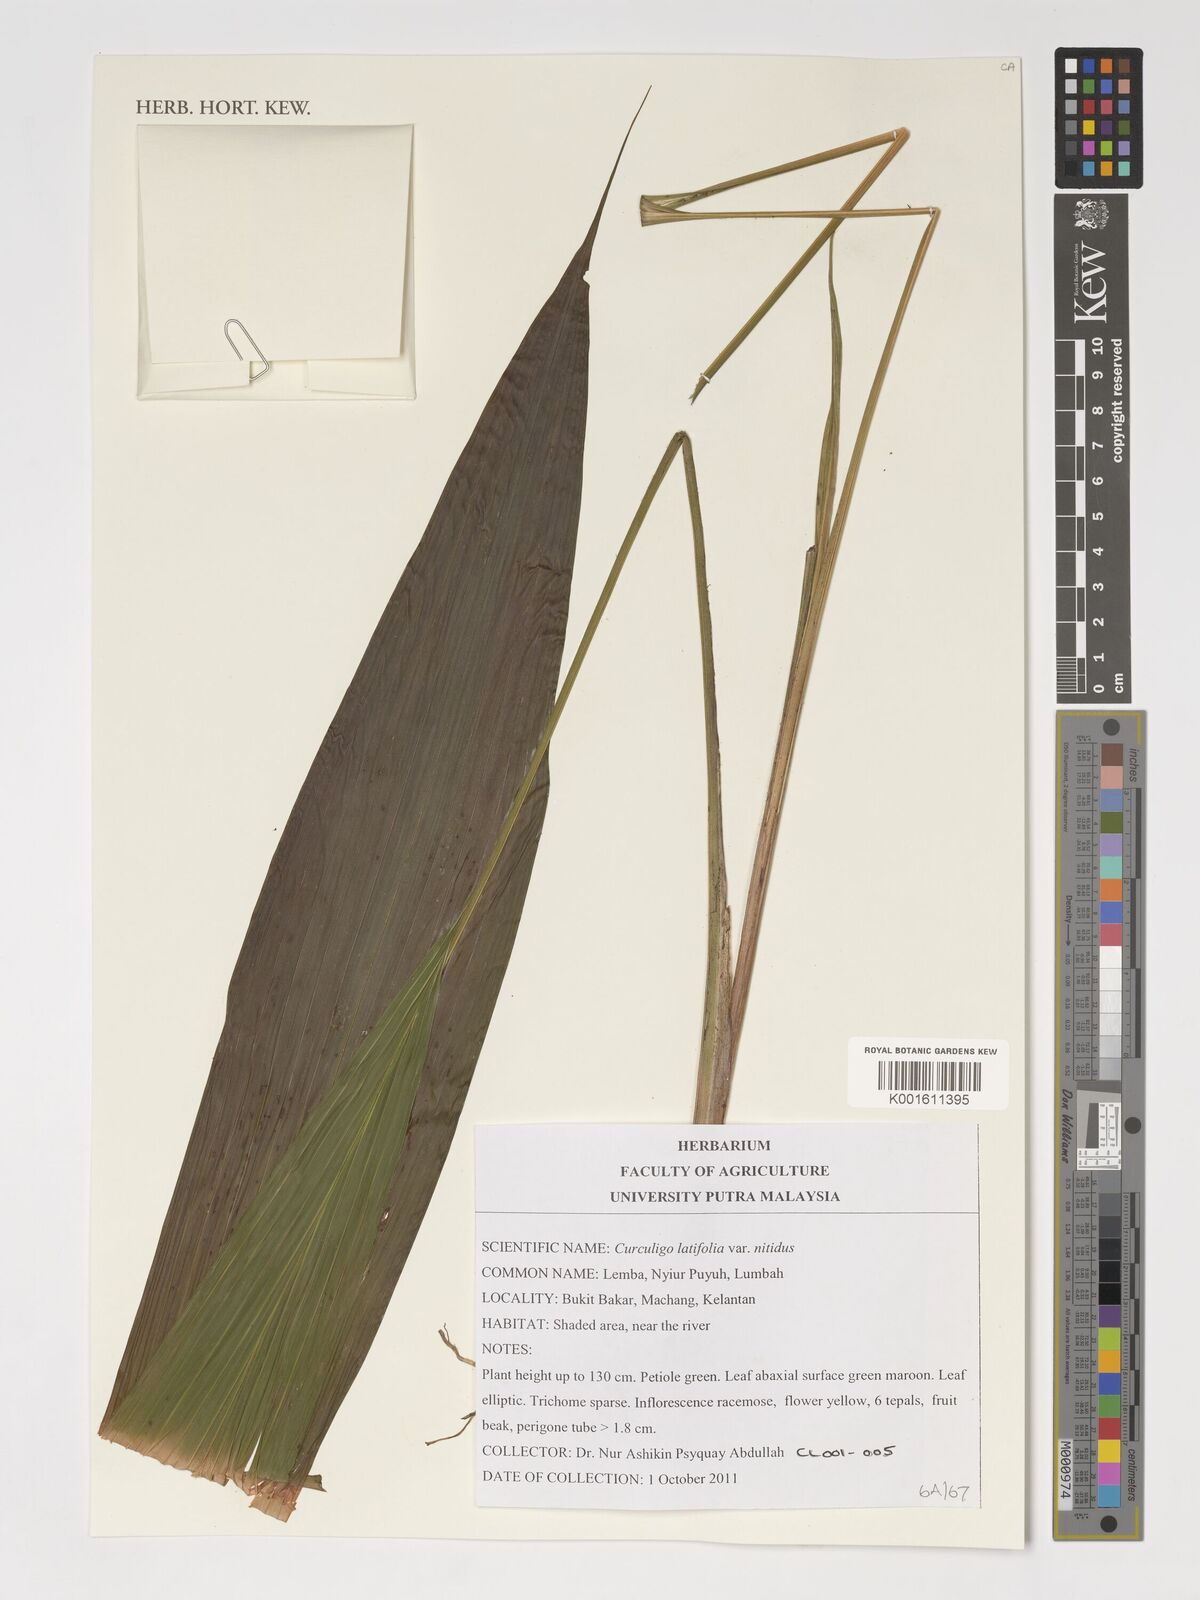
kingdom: Plantae
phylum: Tracheophyta
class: Liliopsida
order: Asparagales
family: Hypoxidaceae
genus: Curculigo
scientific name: Curculigo latifolia
